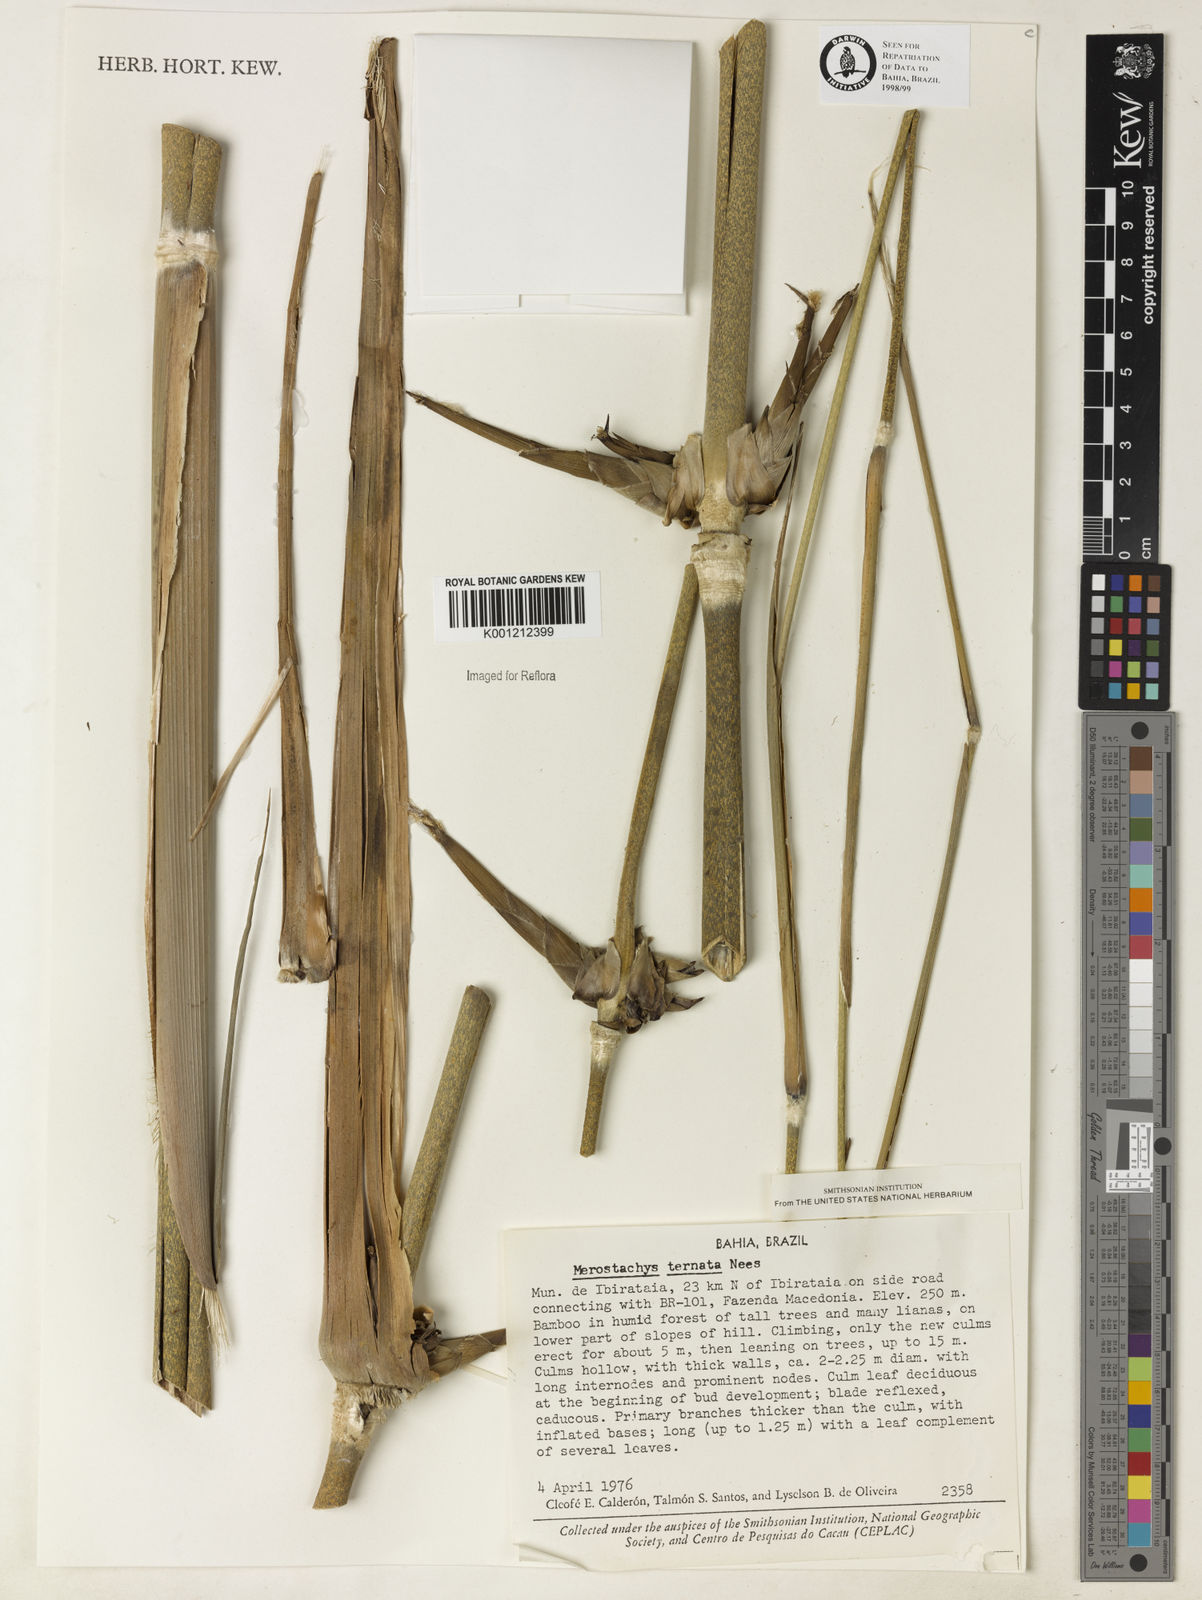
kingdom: Plantae
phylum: Tracheophyta
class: Liliopsida
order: Poales
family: Poaceae
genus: Merostachys
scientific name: Merostachys ternata
